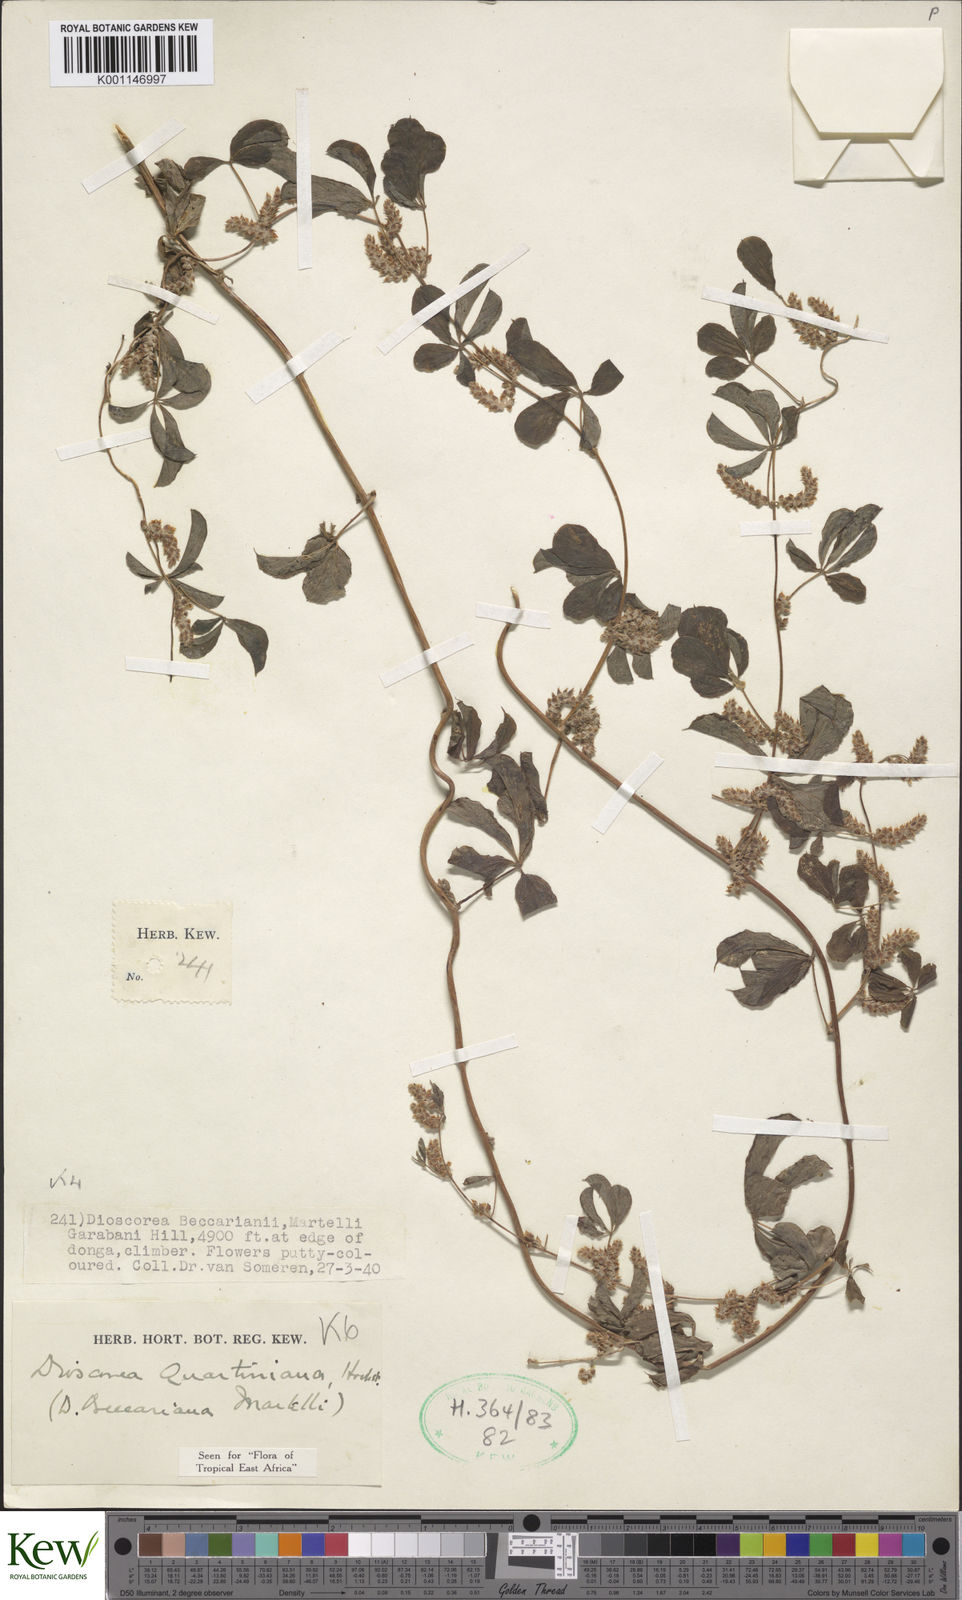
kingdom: Plantae
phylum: Tracheophyta
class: Liliopsida
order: Dioscoreales
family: Dioscoreaceae
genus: Dioscorea
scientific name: Dioscorea quartiniana
